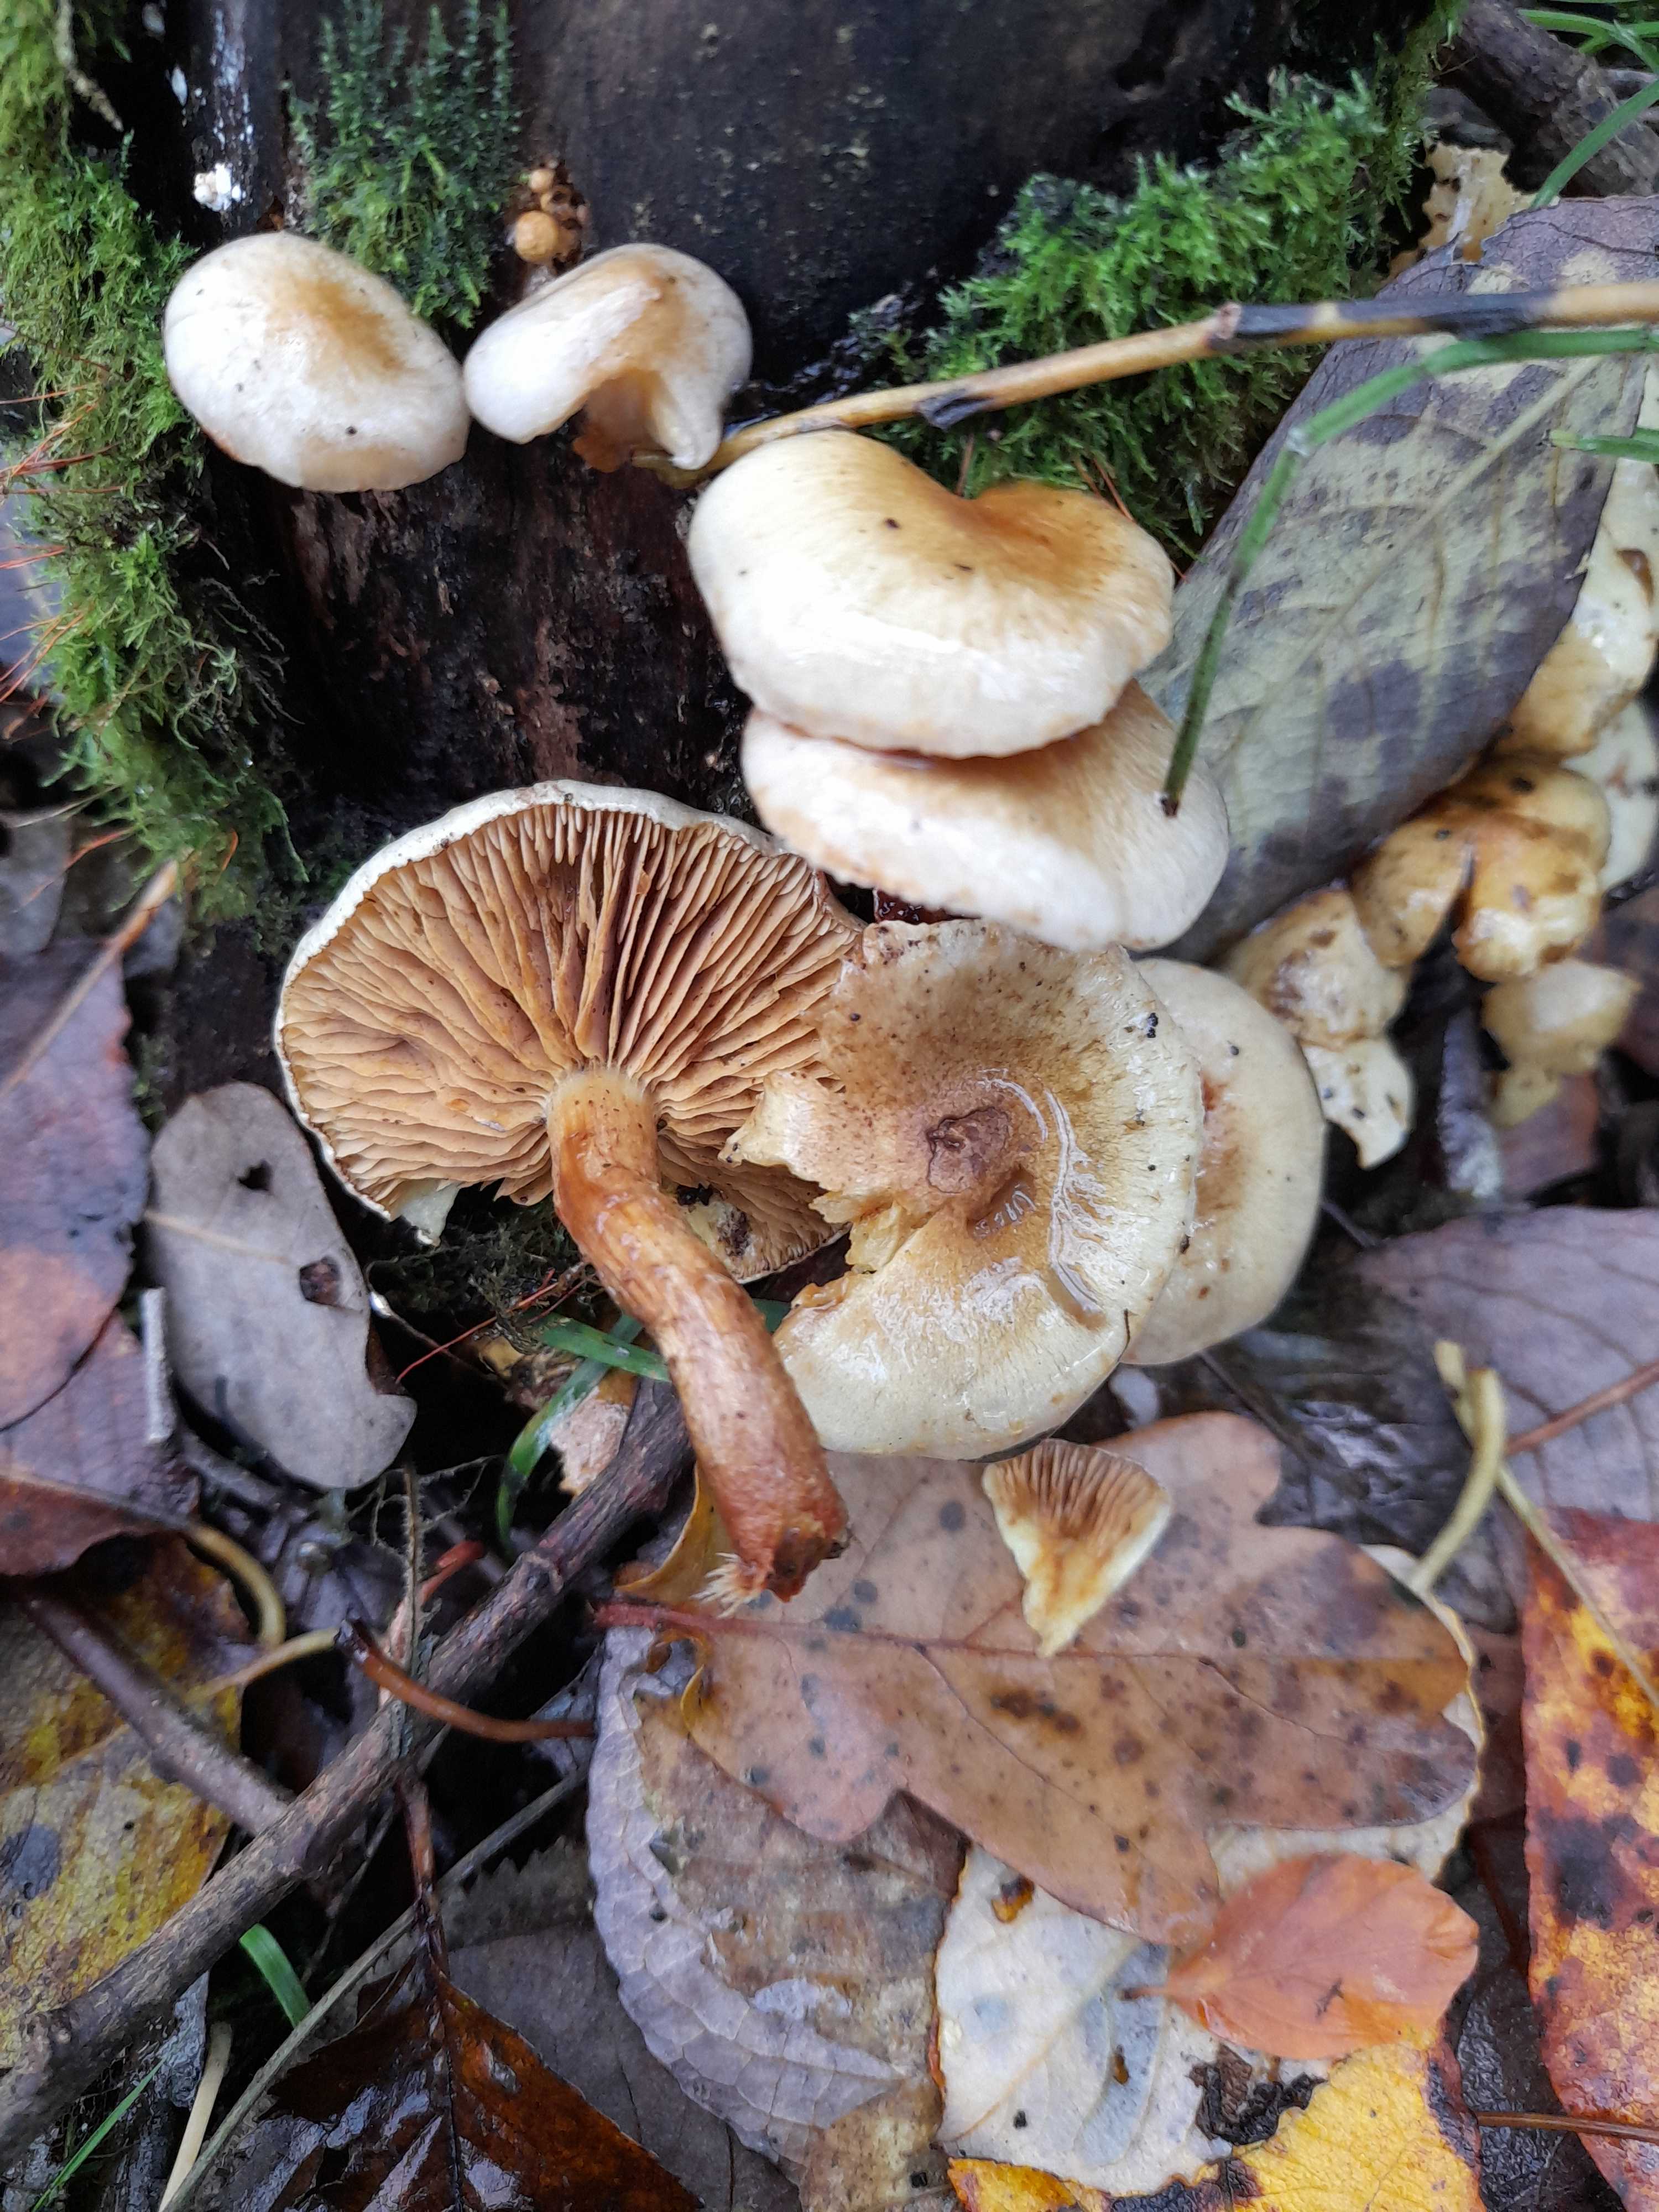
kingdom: Fungi
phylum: Basidiomycota
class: Agaricomycetes
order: Agaricales
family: Strophariaceae
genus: Pholiota
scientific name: Pholiota gummosa
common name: grøngul skælhat
